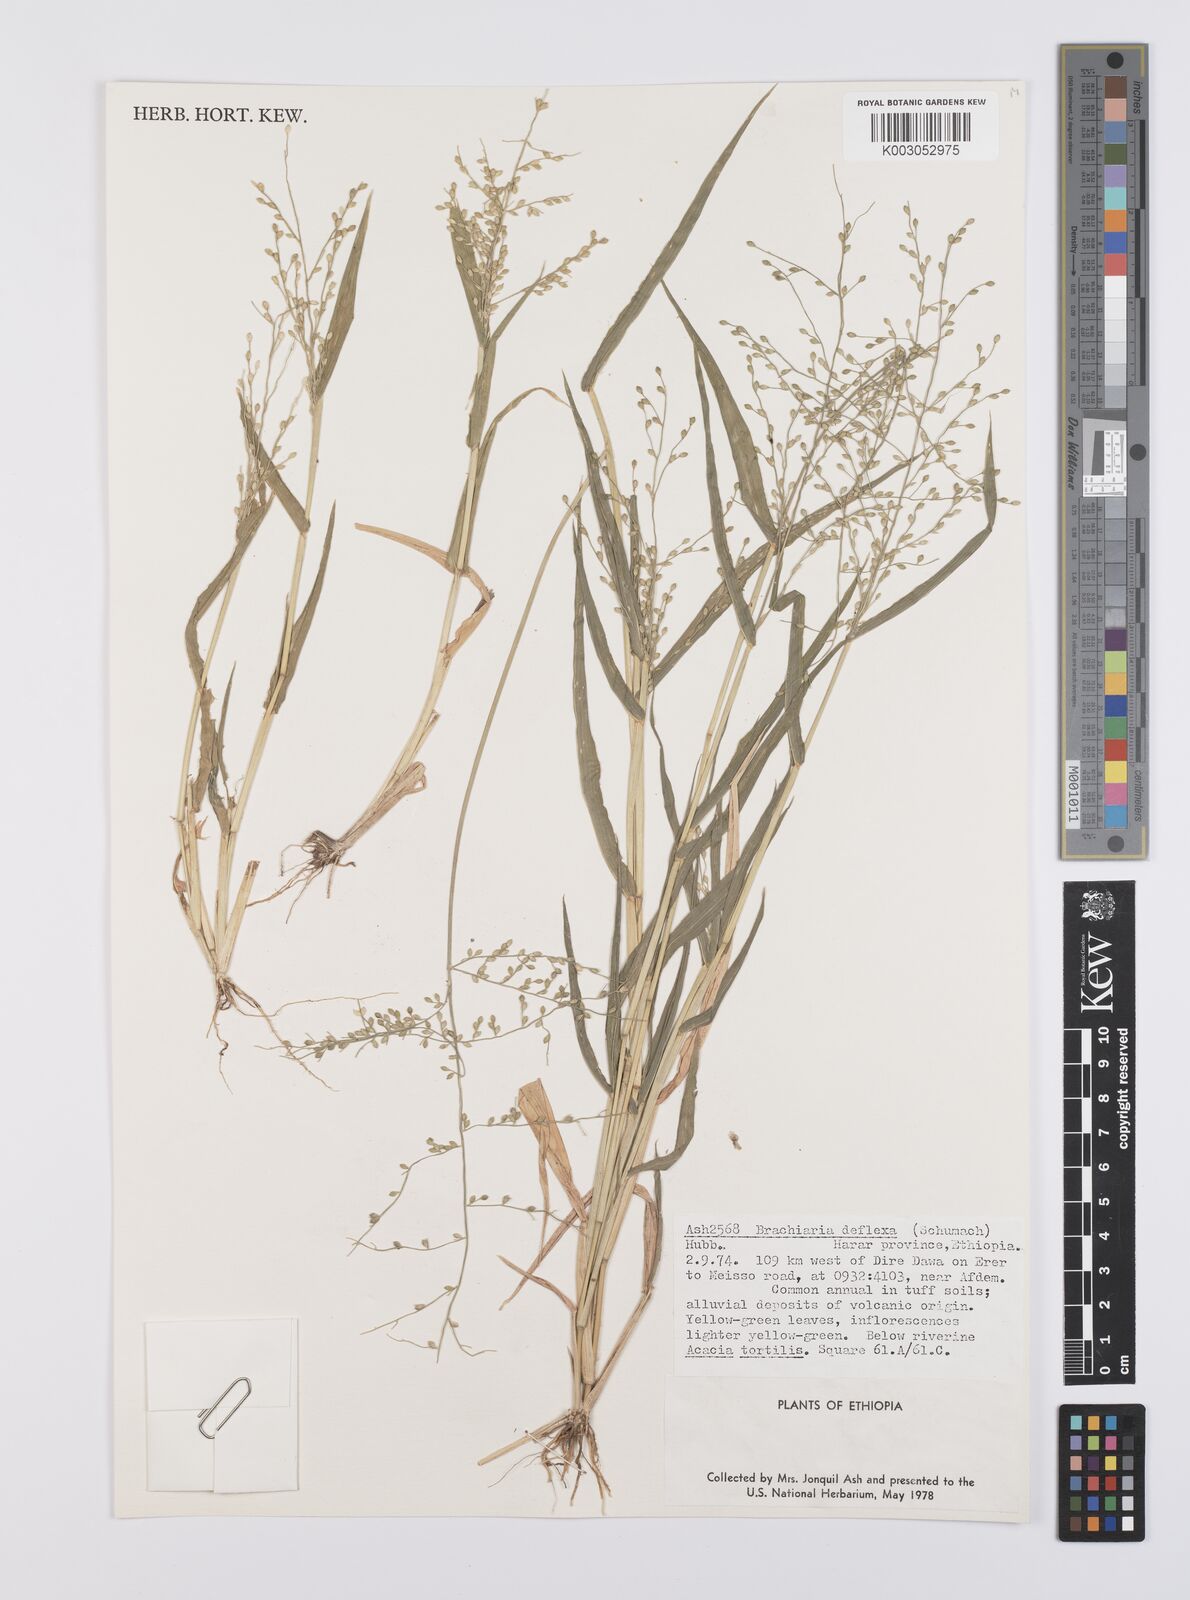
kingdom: Plantae
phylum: Tracheophyta
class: Liliopsida
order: Poales
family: Poaceae
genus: Urochloa
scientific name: Urochloa deflexa
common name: Guinea millet
